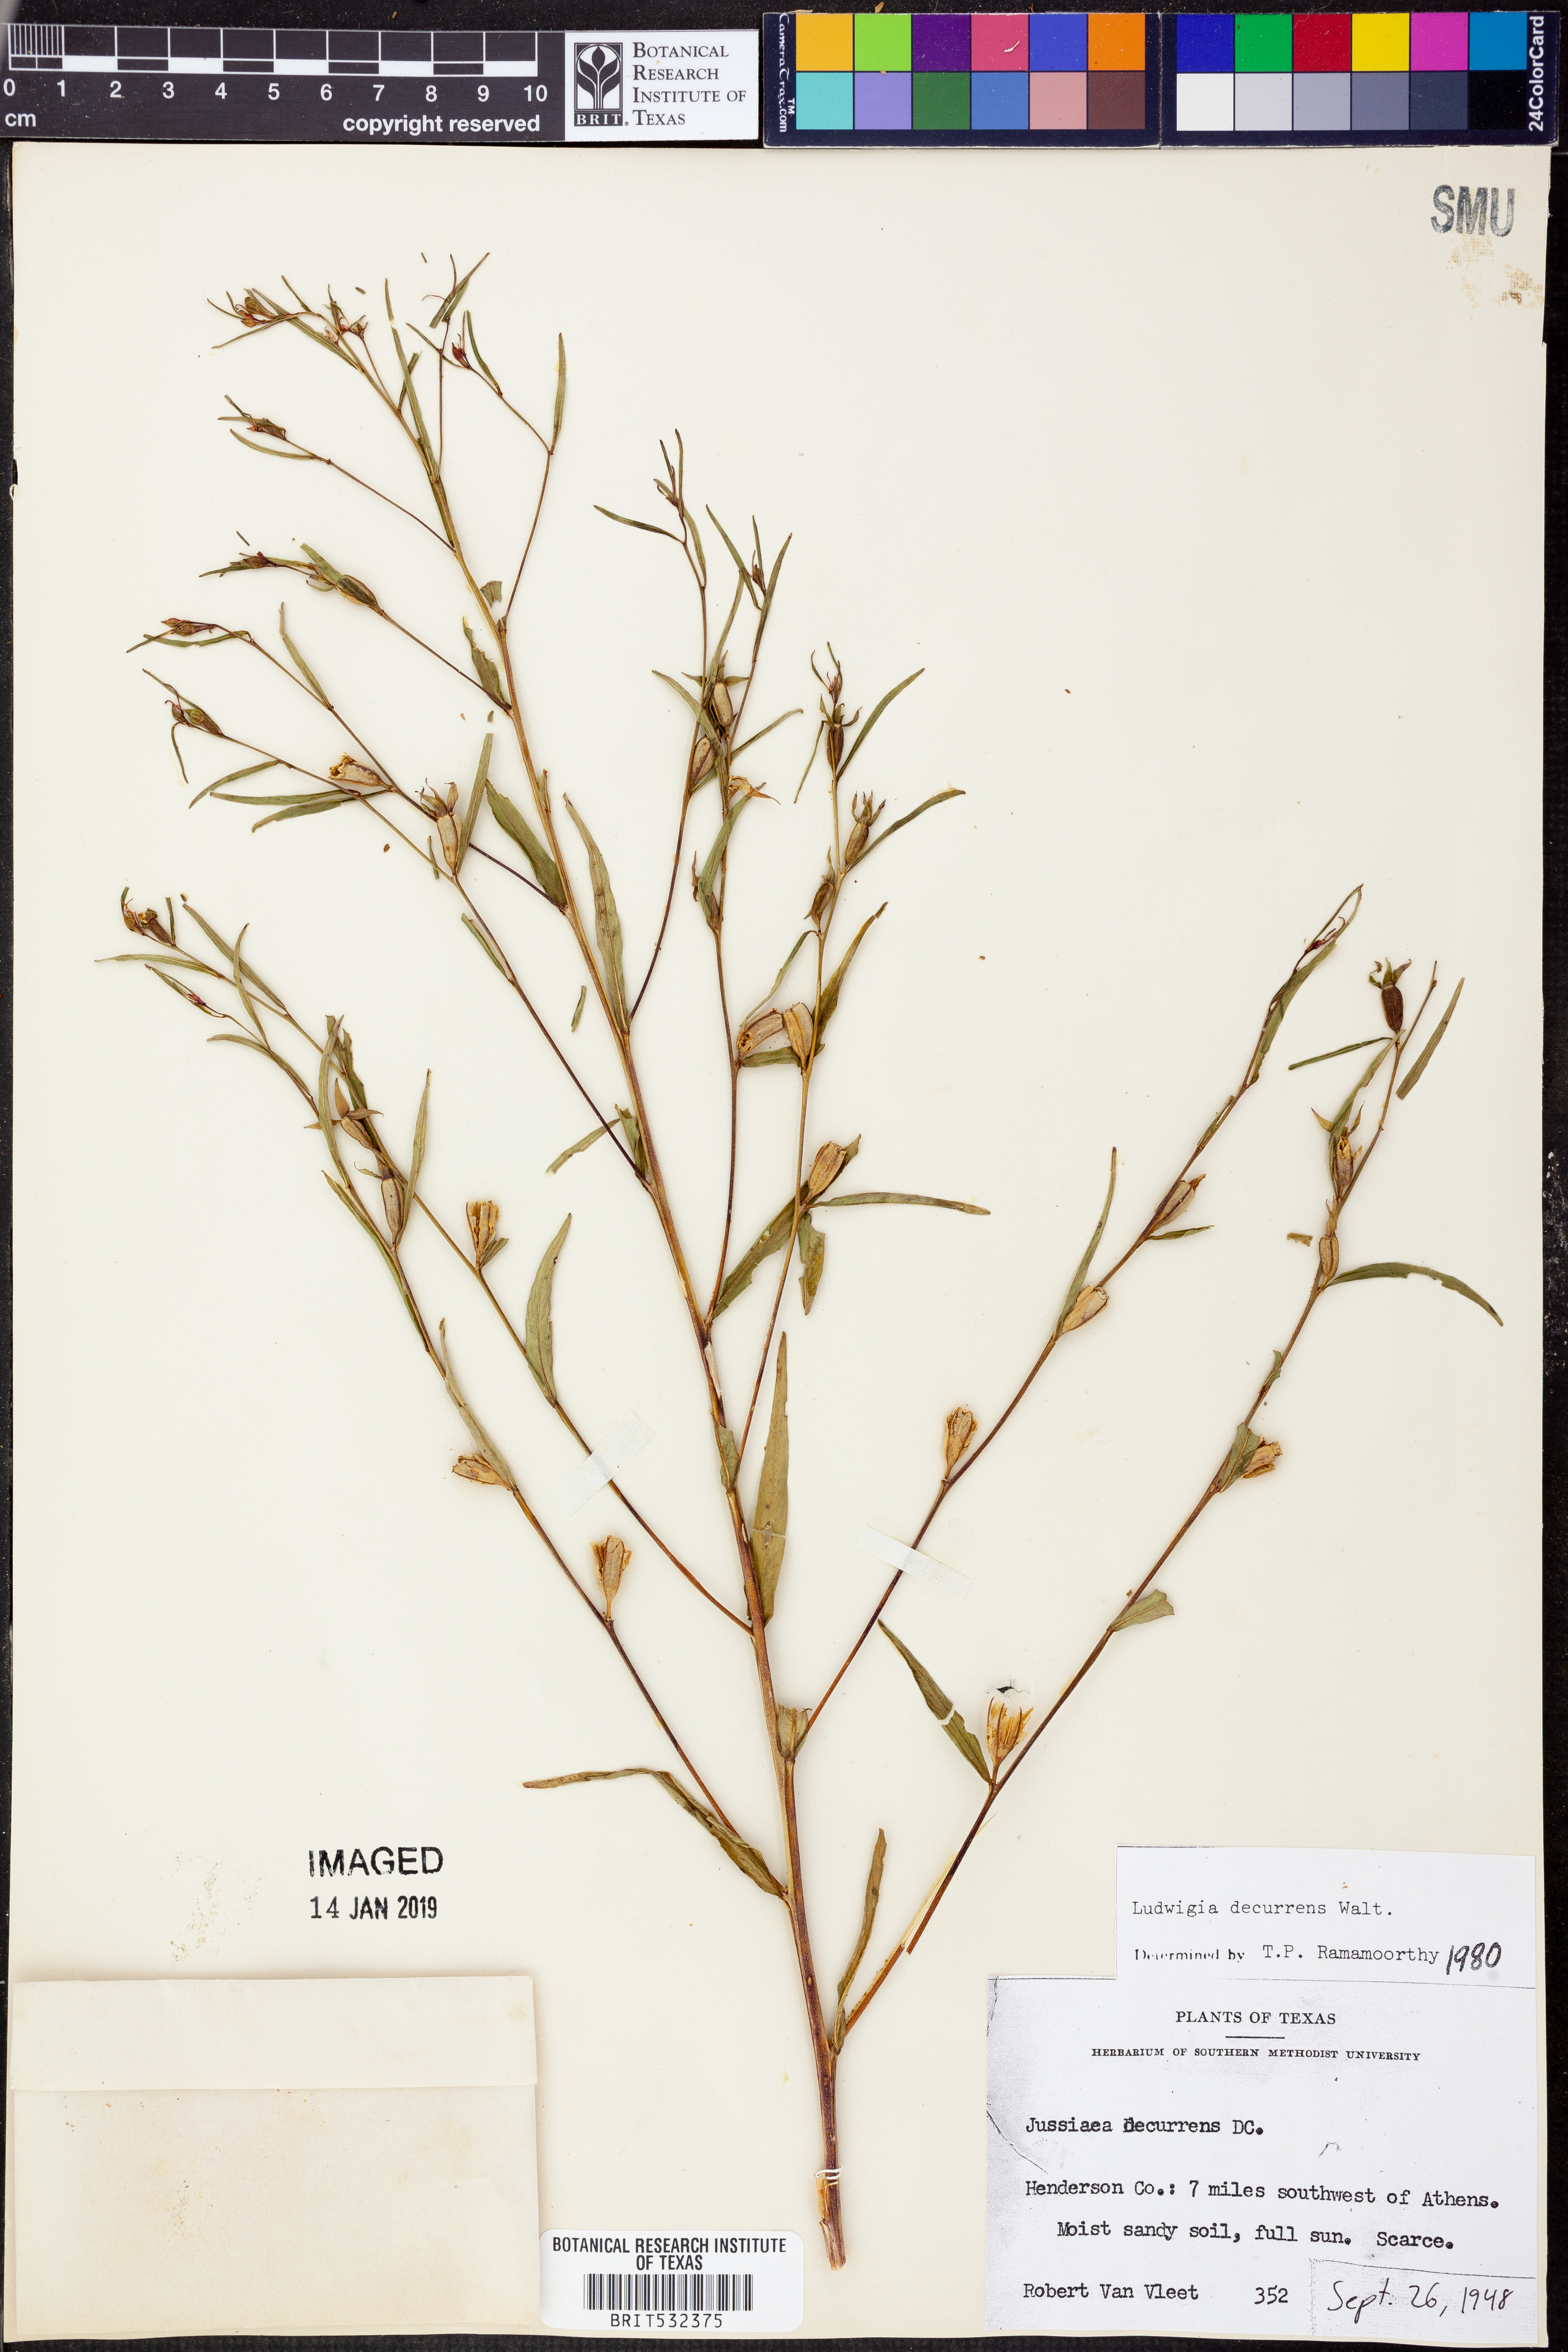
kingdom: Plantae
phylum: Tracheophyta
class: Magnoliopsida
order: Myrtales
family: Onagraceae
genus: Ludwigia
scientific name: Ludwigia decurrens
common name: Winged water-primrose
